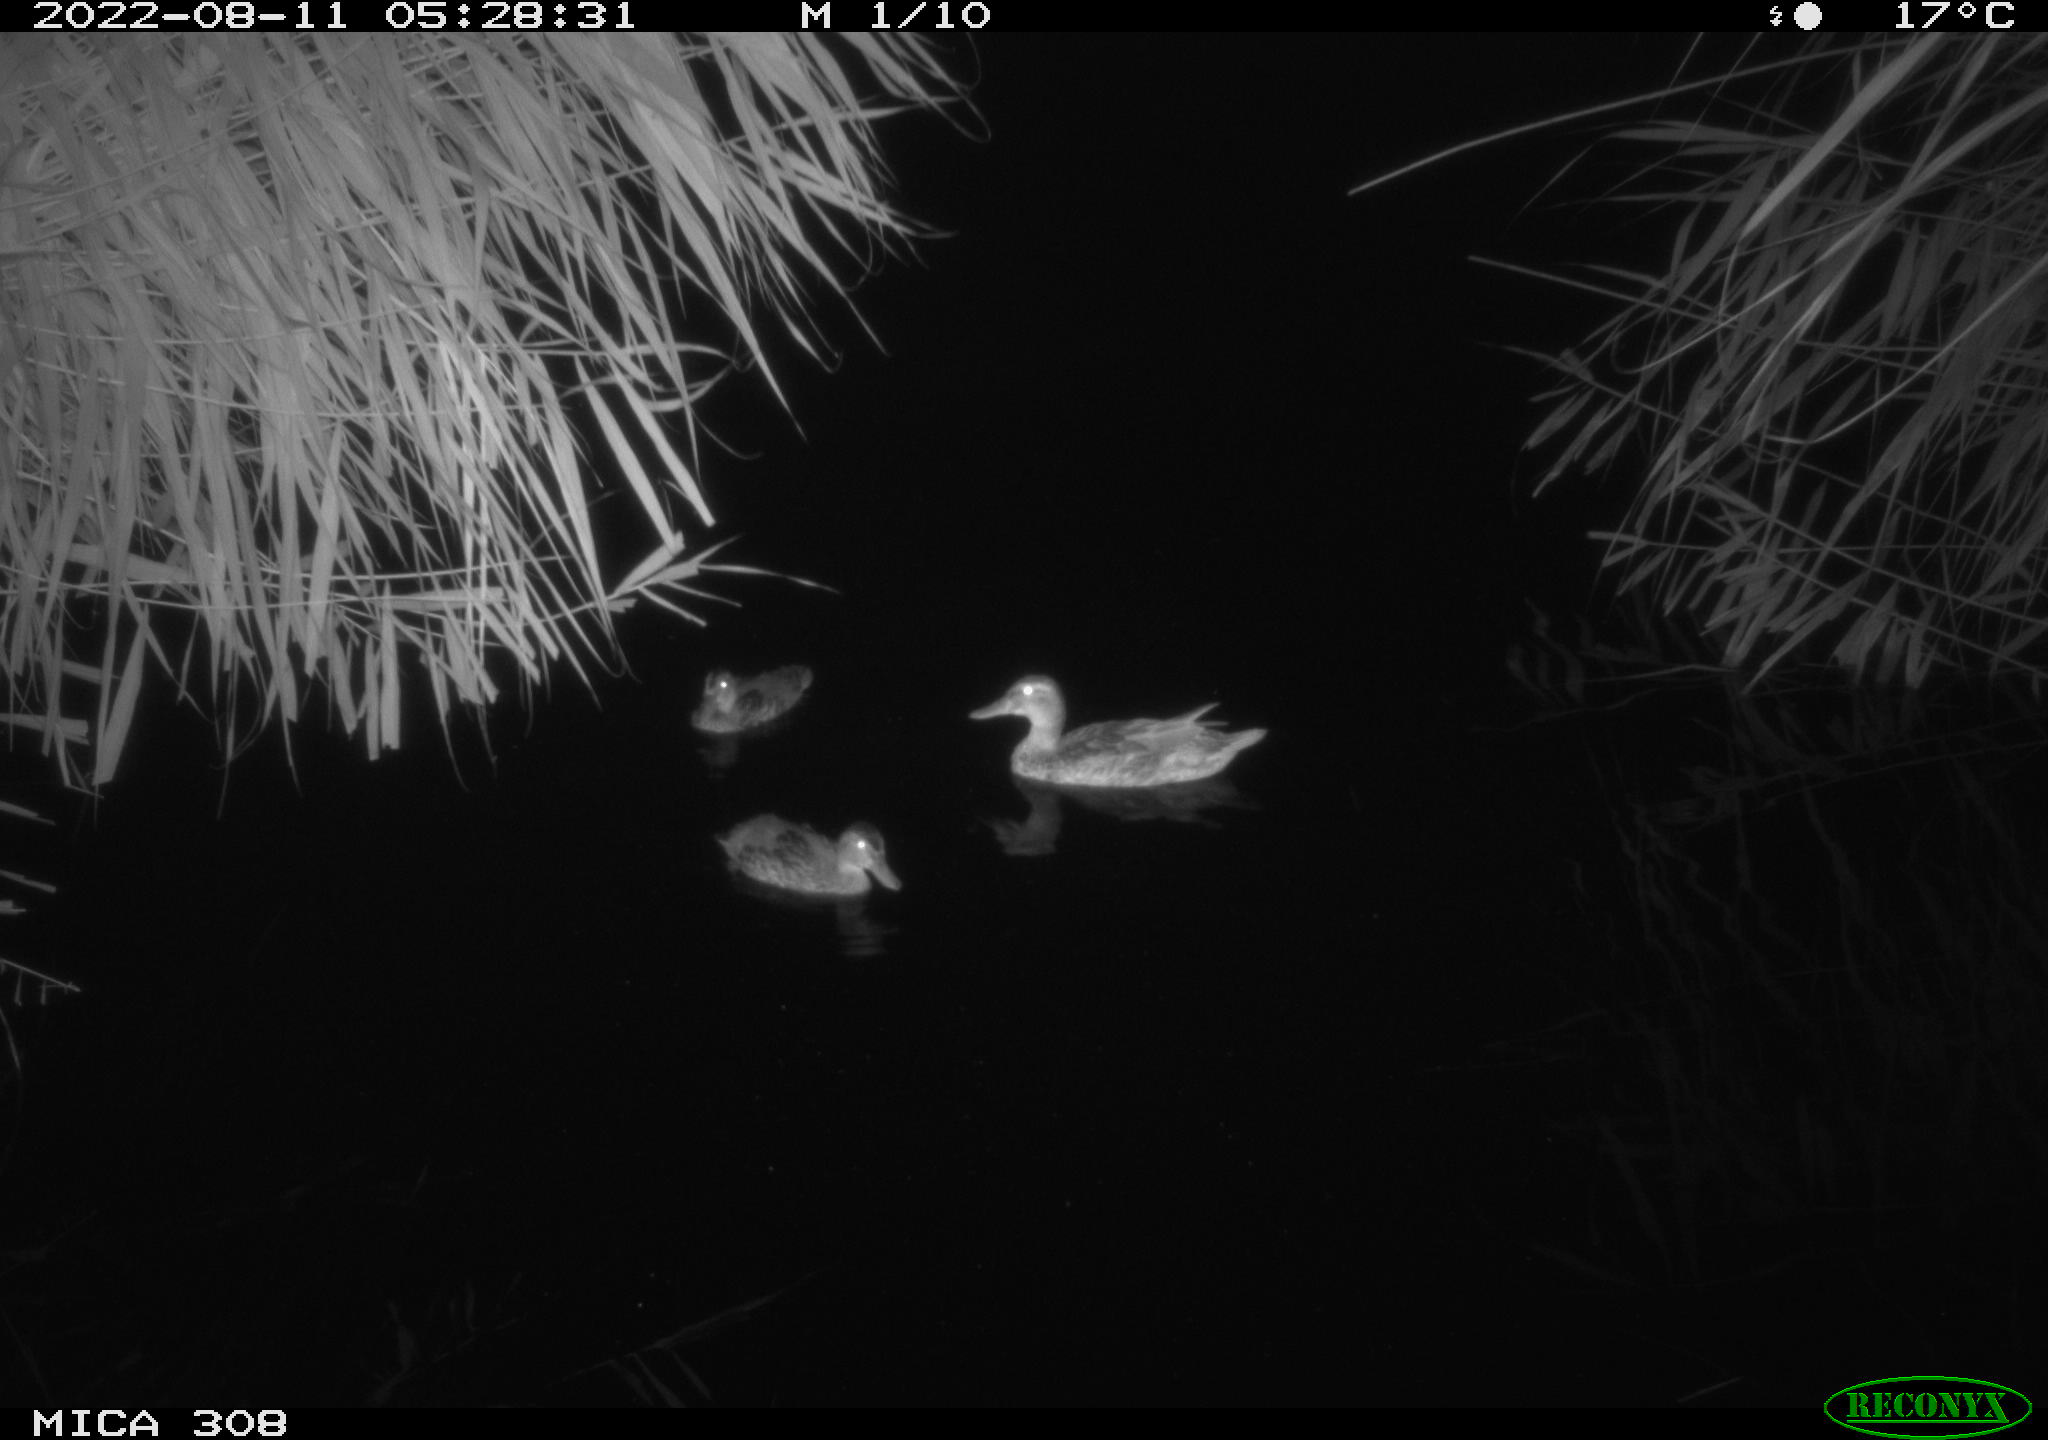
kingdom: Animalia
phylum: Chordata
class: Aves
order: Anseriformes
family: Anatidae
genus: Anas
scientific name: Anas platyrhynchos
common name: Mallard
